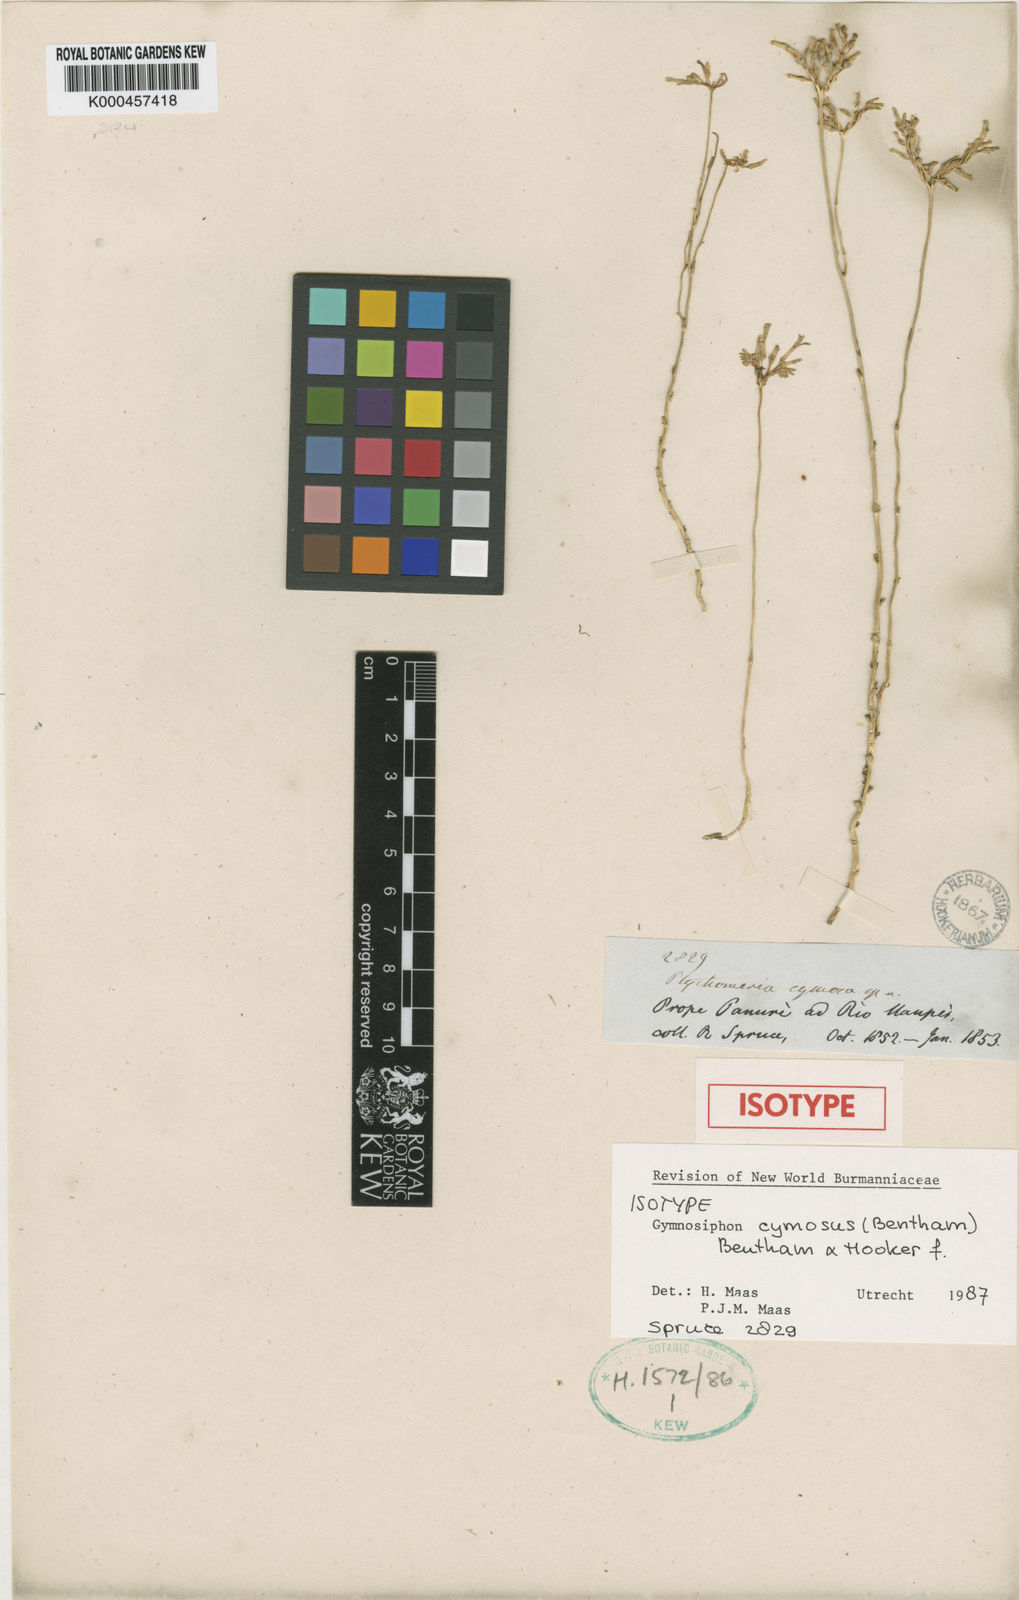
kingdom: Plantae
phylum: Tracheophyta
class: Liliopsida
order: Dioscoreales
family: Burmanniaceae
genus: Gymnosiphon
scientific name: Gymnosiphon cymosus
